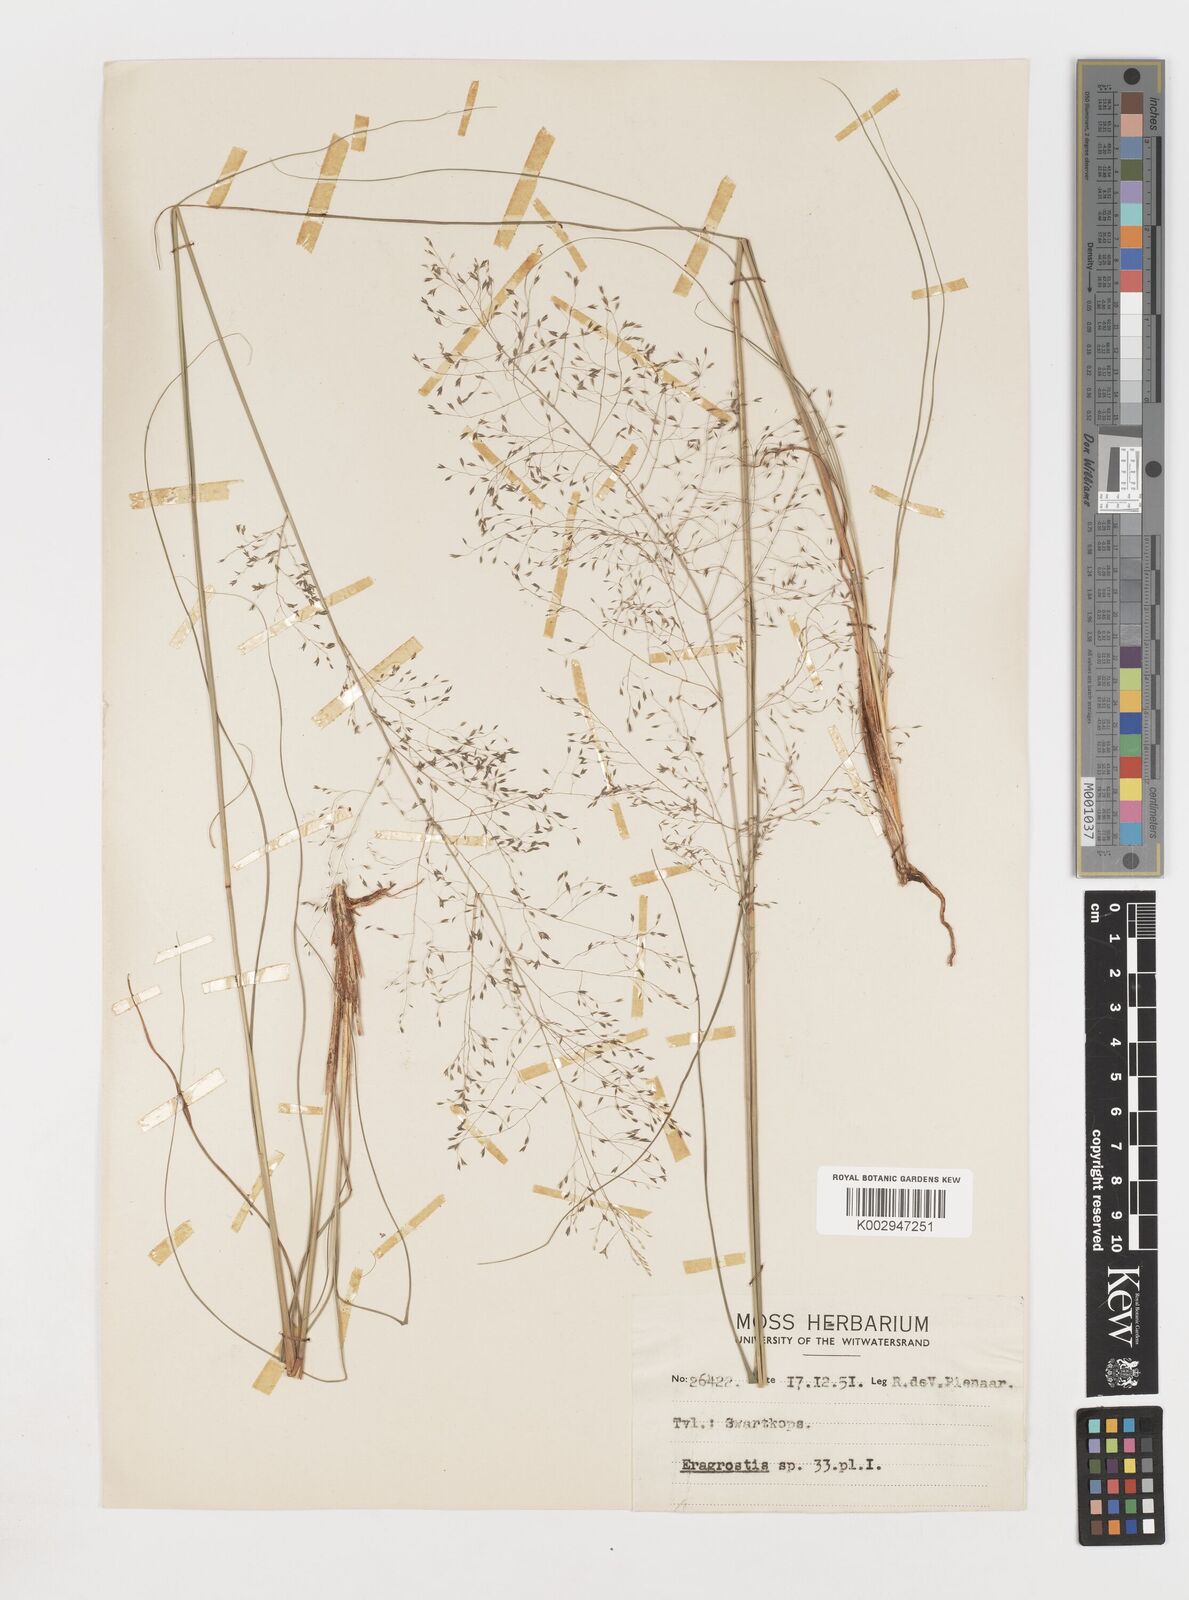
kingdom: Plantae
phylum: Tracheophyta
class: Liliopsida
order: Poales
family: Poaceae
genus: Eragrostis
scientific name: Eragrostis
